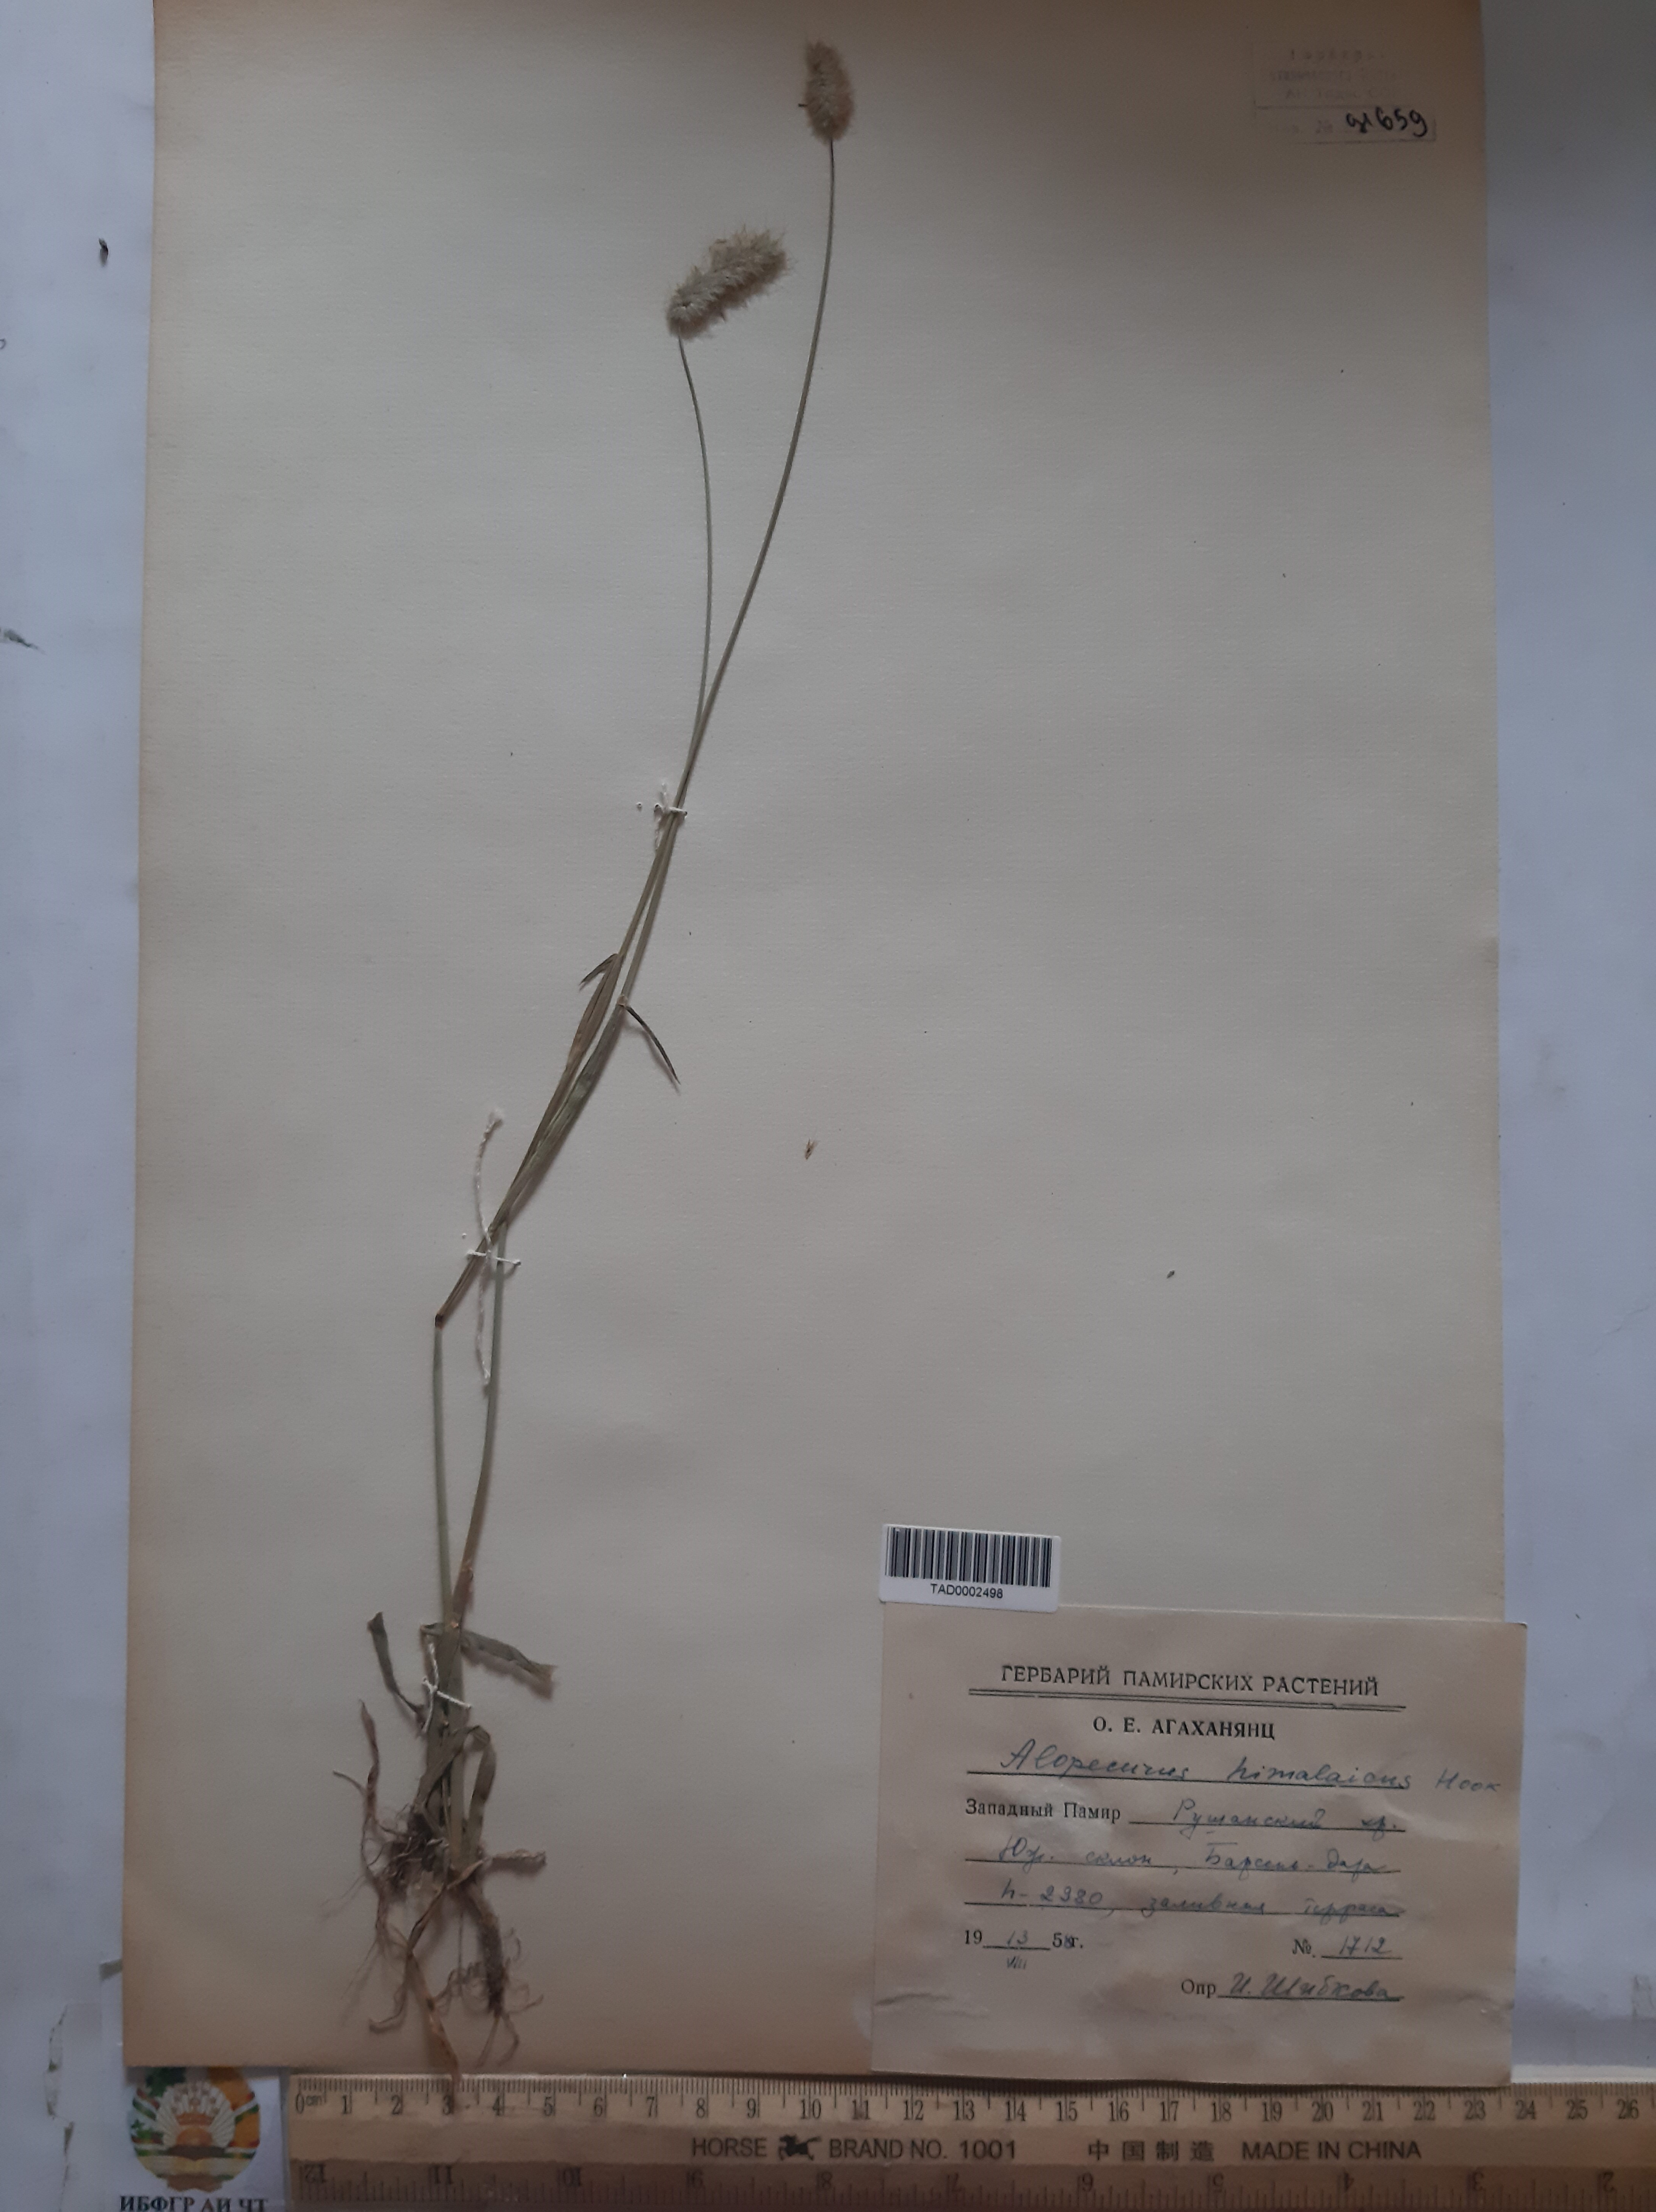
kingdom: Plantae
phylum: Tracheophyta
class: Liliopsida
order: Poales
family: Poaceae
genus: Alopecurus
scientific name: Alopecurus himalaicus
